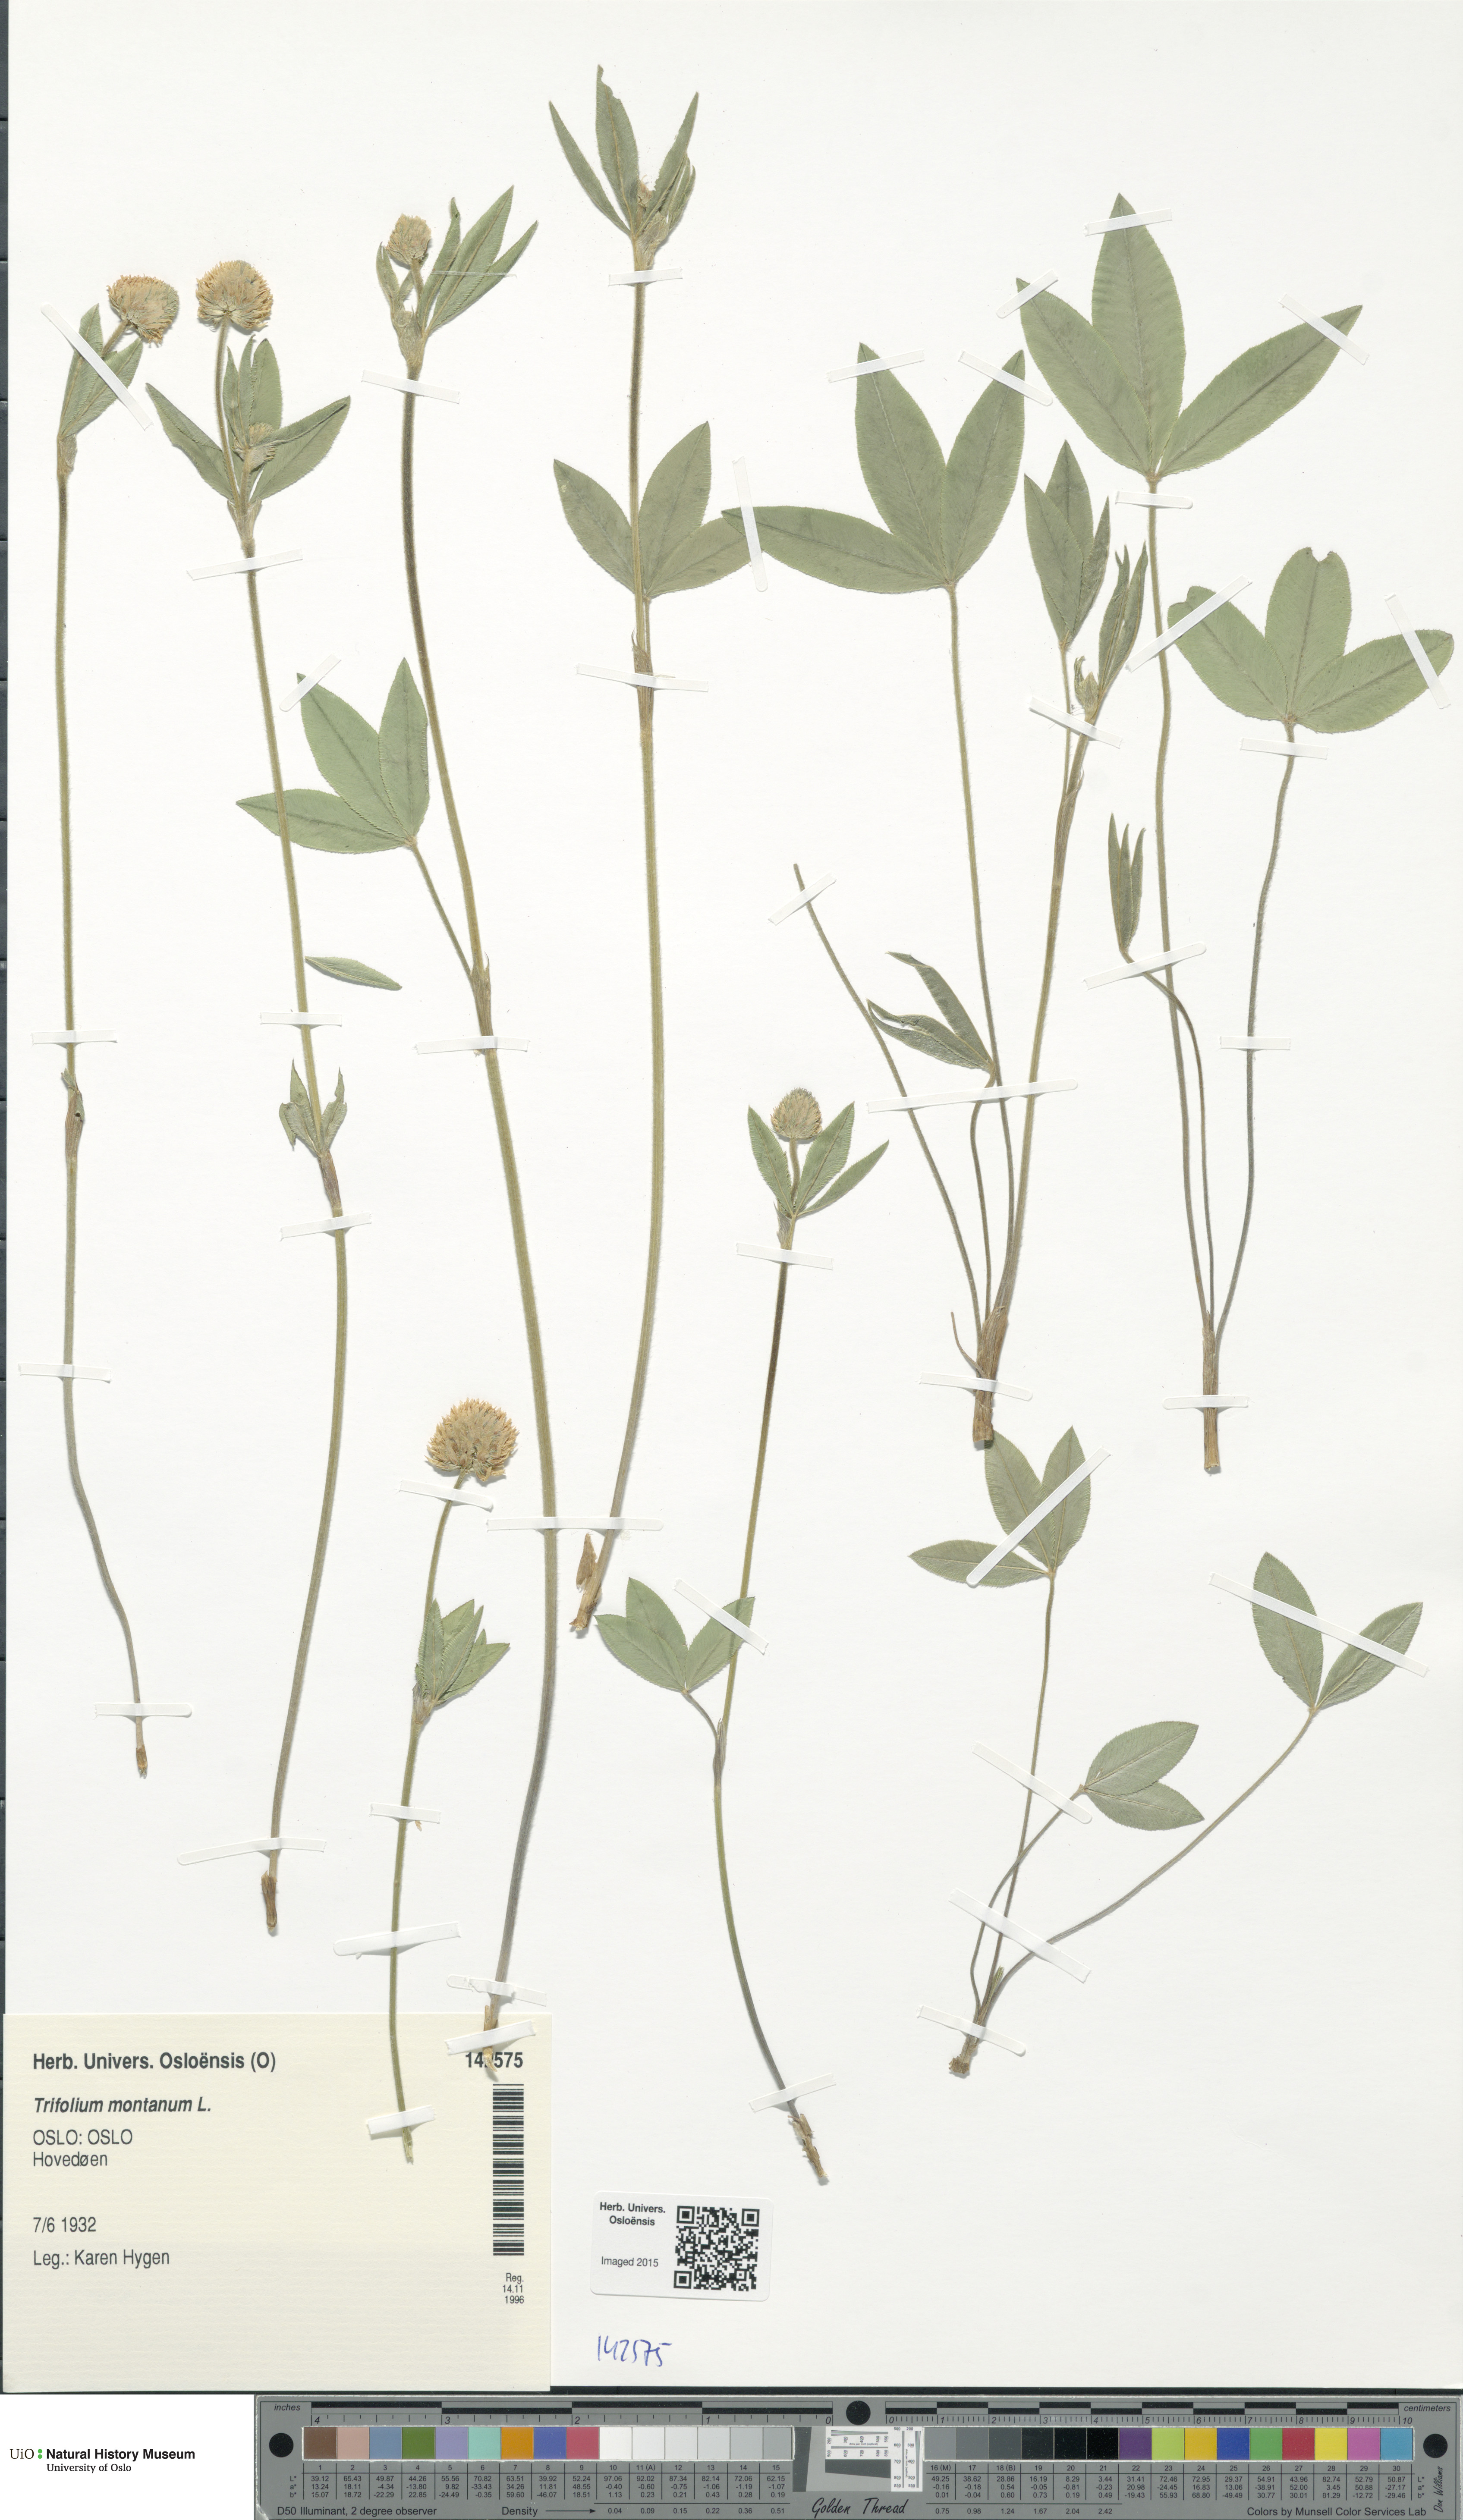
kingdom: Plantae
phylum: Tracheophyta
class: Magnoliopsida
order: Fabales
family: Fabaceae
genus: Trifolium
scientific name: Trifolium montanum
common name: Mountain clover
